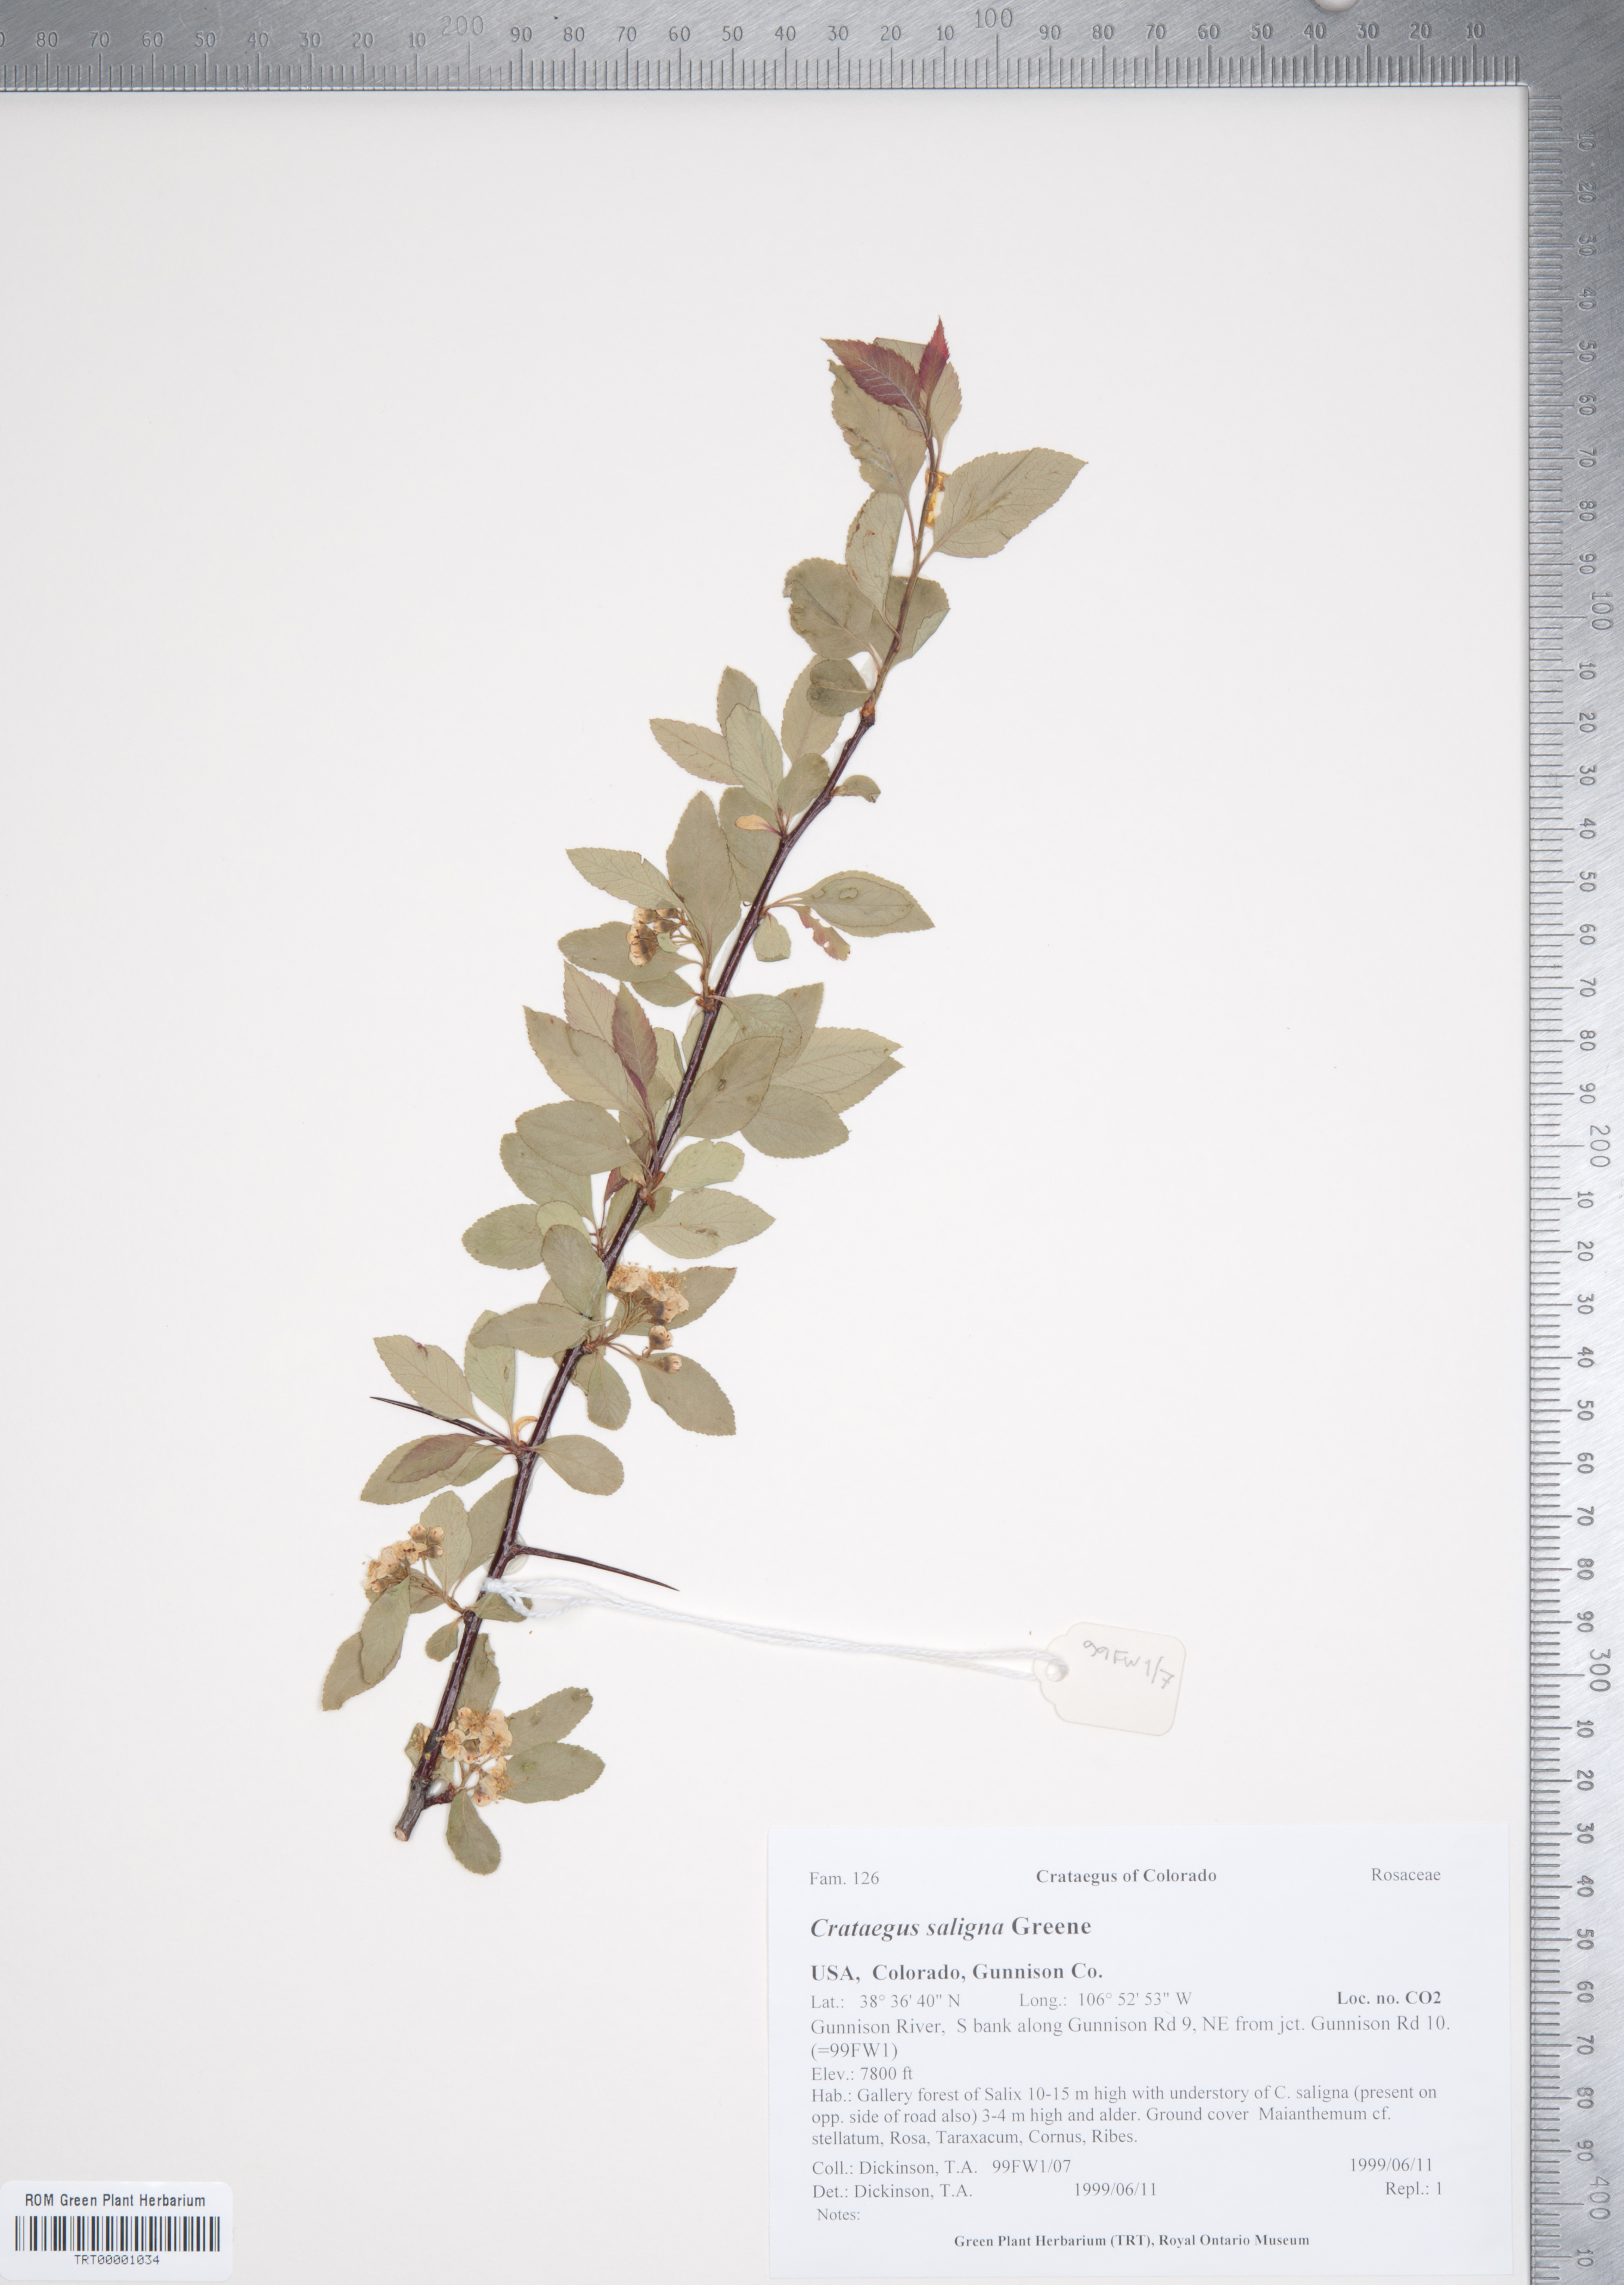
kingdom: Plantae
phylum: Tracheophyta
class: Magnoliopsida
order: Rosales
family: Rosaceae
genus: Crataegus
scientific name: Crataegus saligna
